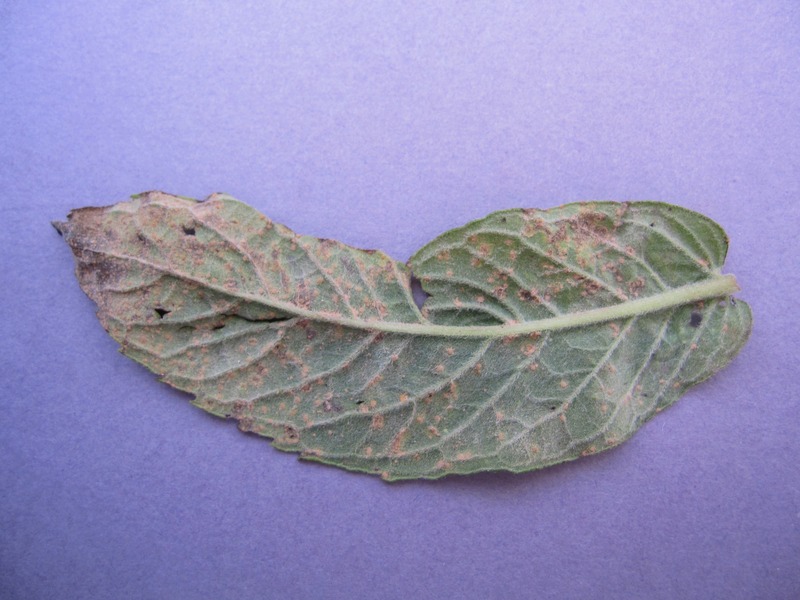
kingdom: Fungi
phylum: Basidiomycota
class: Pucciniomycetes
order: Pucciniales
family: Pucciniaceae
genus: Puccinia
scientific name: Puccinia menthae
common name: Mint rust
